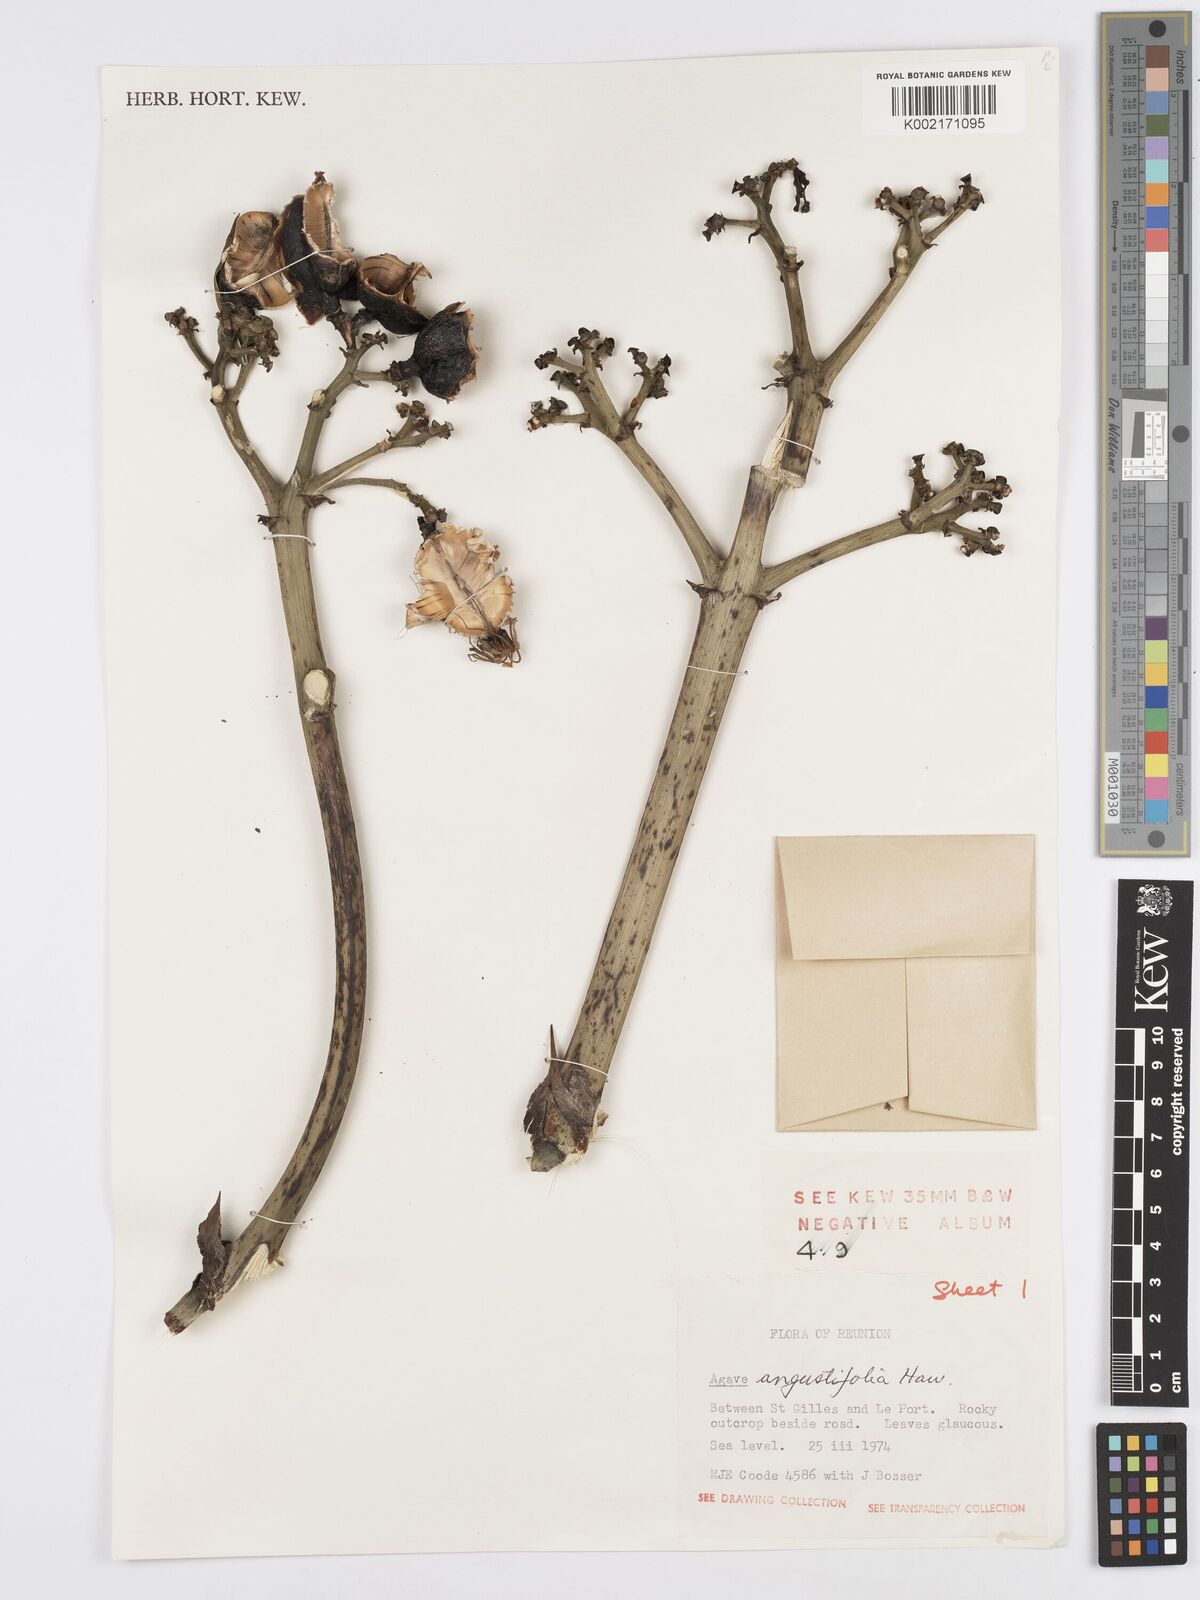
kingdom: Plantae
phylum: Tracheophyta
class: Liliopsida
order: Asparagales
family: Asparagaceae
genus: Agave
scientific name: Agave angustifolia
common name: Mescal agave
